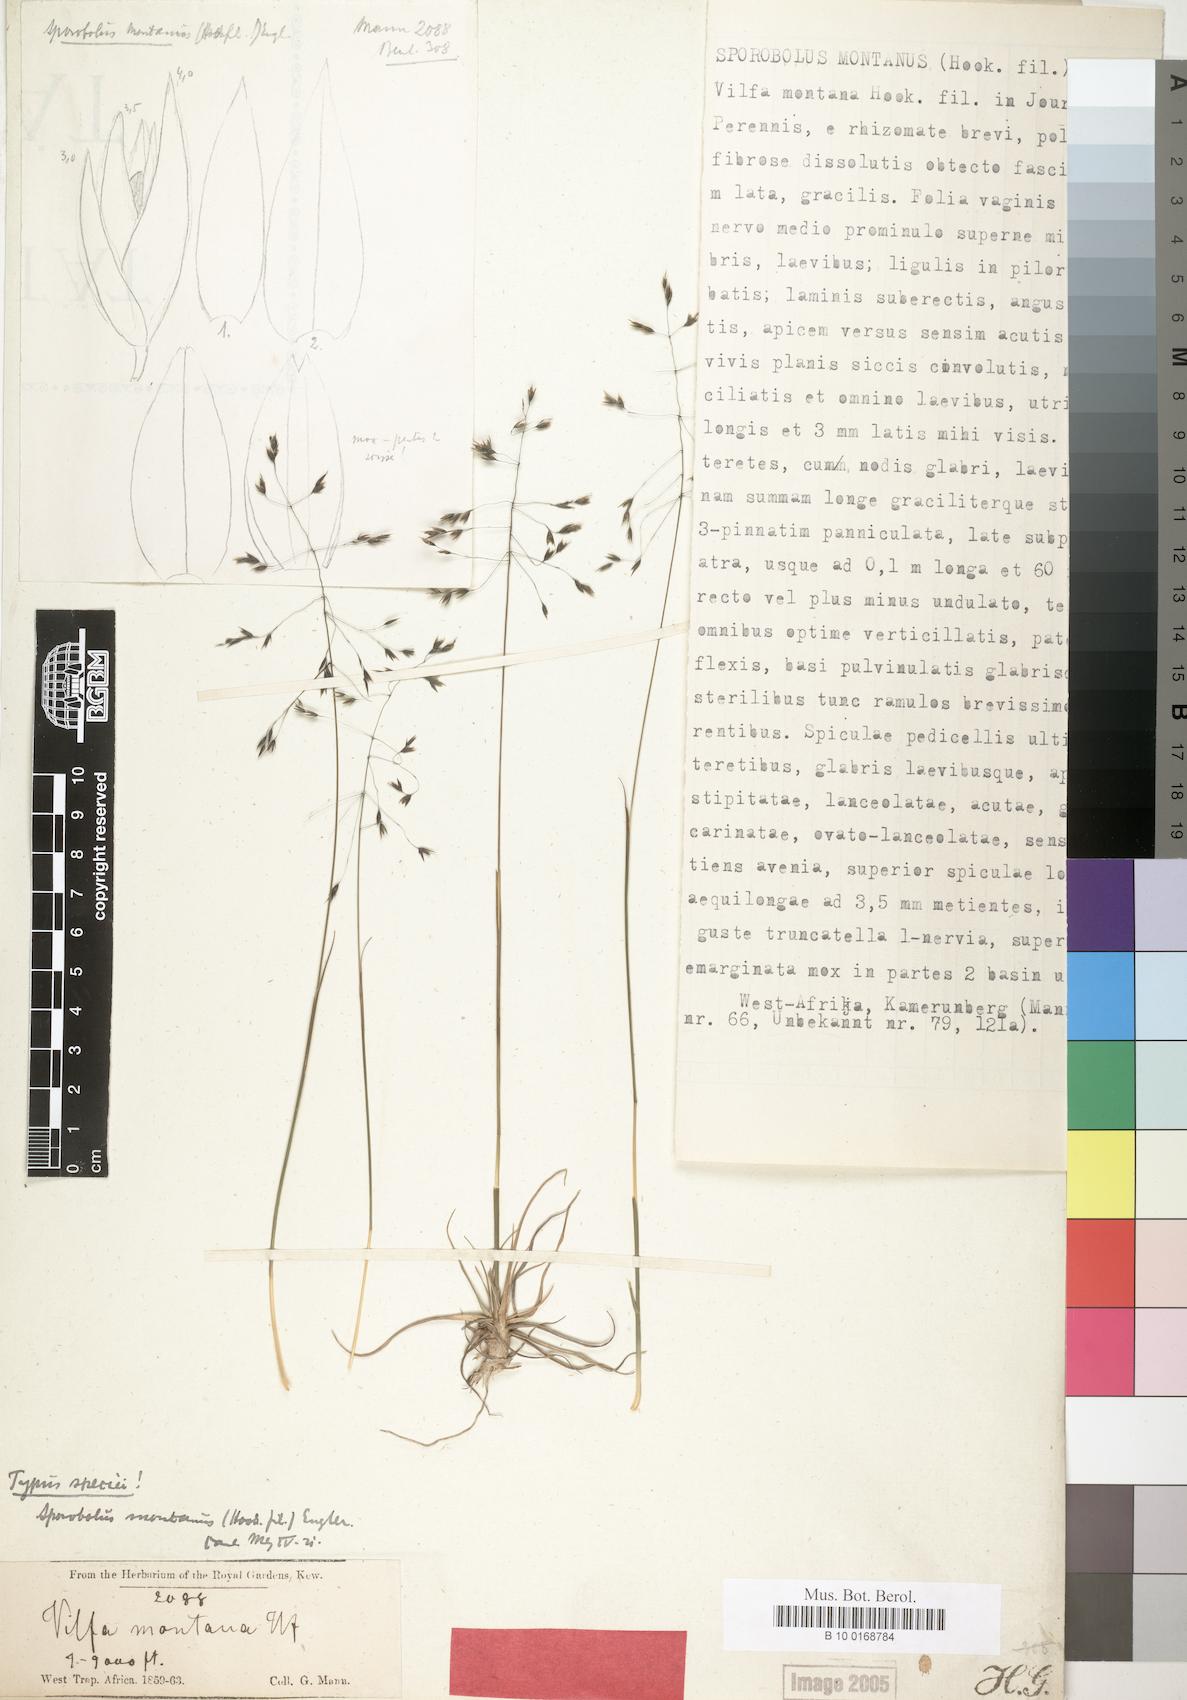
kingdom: Plantae
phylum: Tracheophyta
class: Liliopsida
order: Poales
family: Poaceae
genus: Sporobolus
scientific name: Sporobolus montanus
